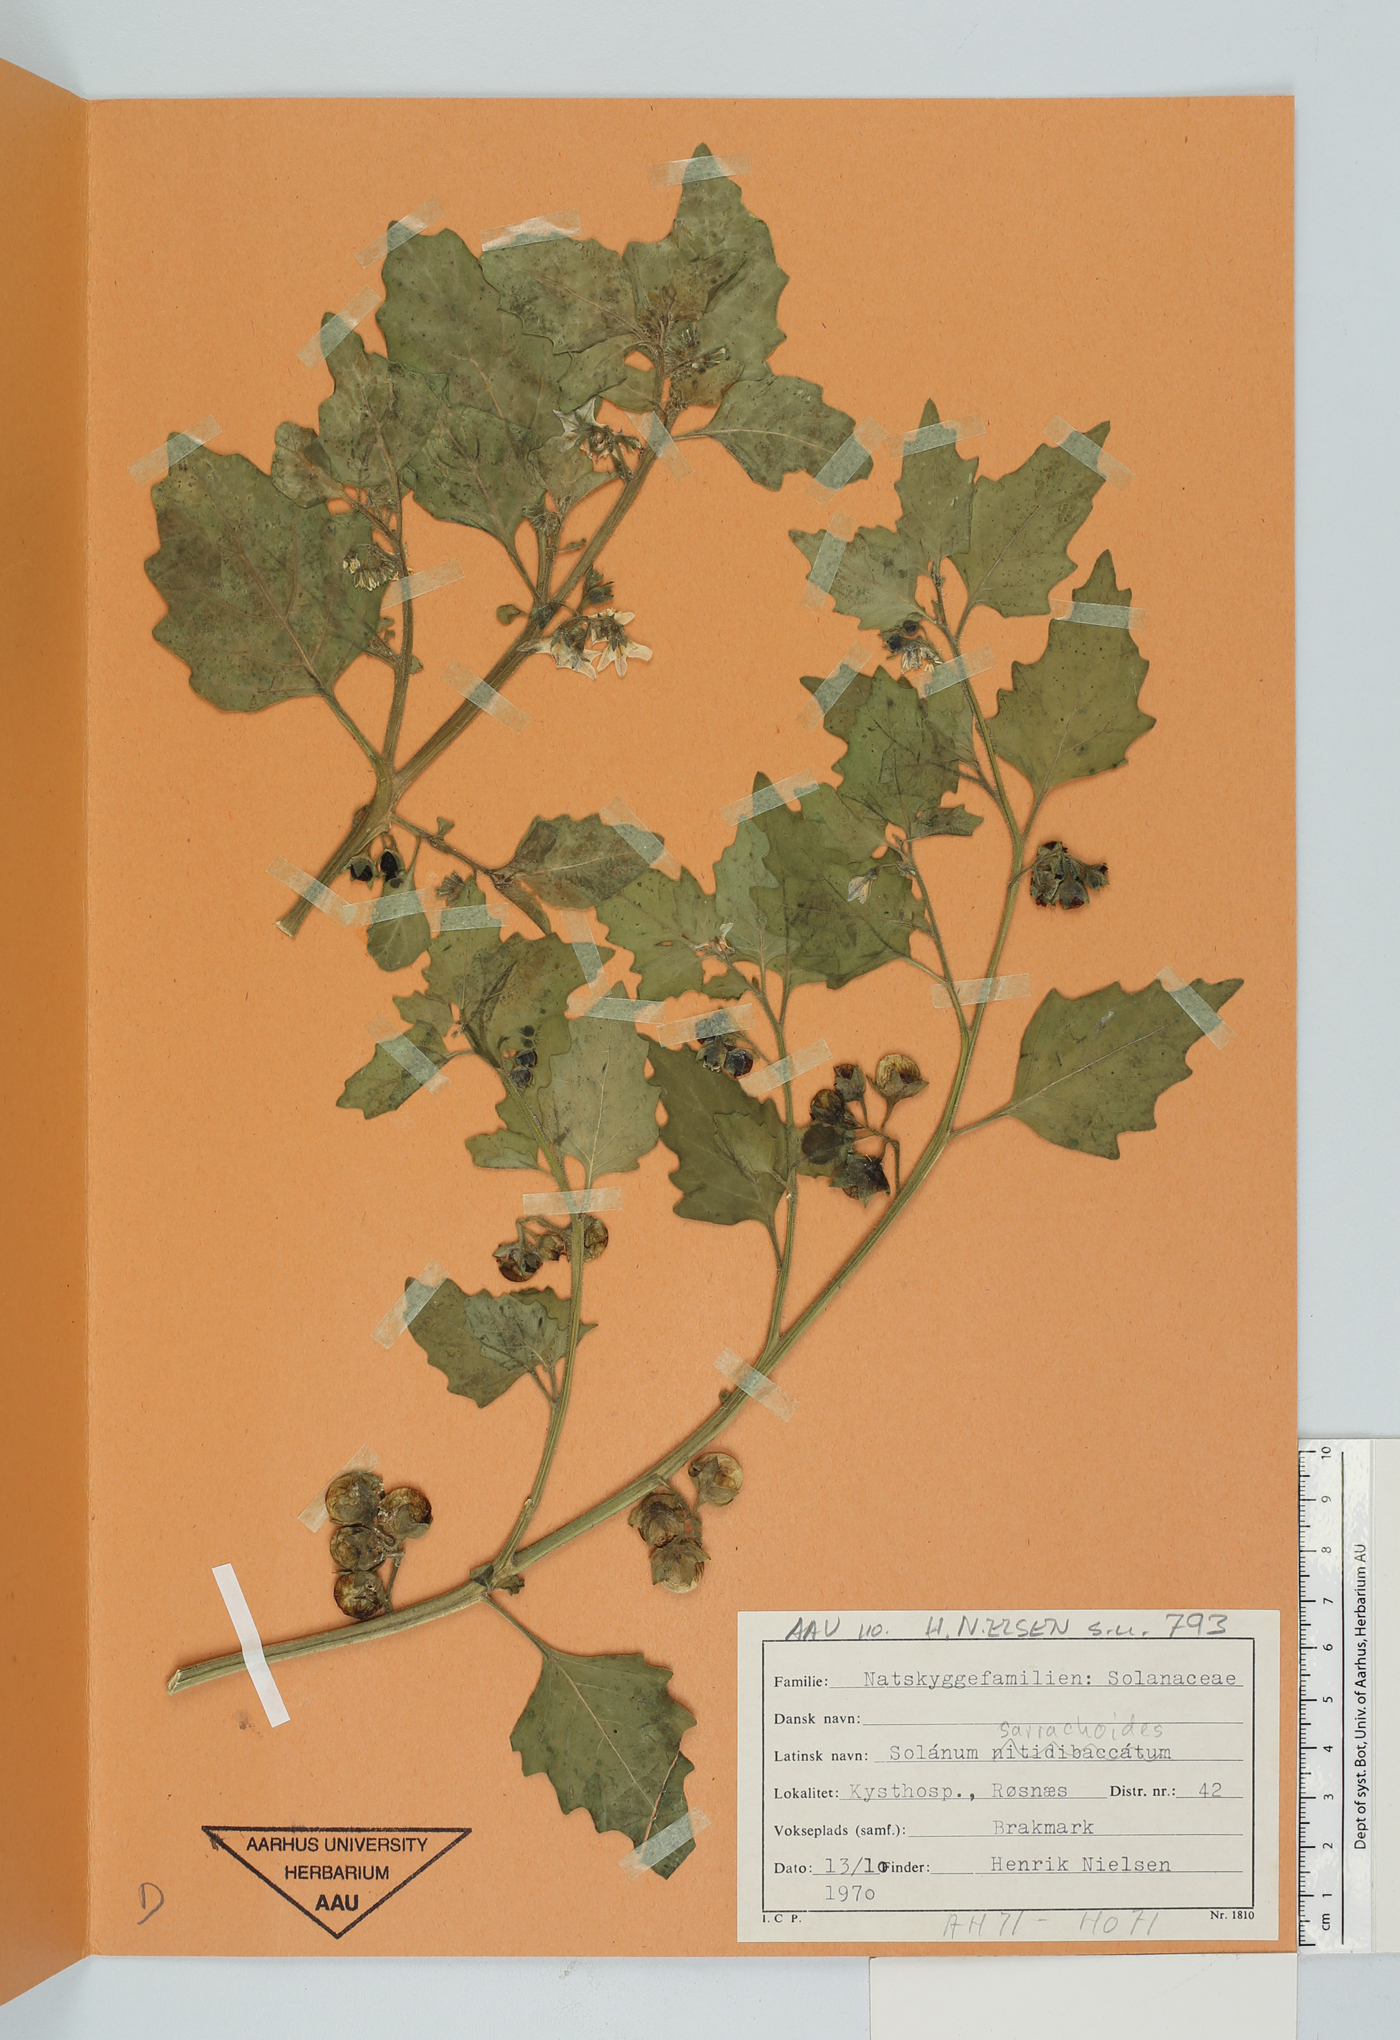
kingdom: Plantae
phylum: Tracheophyta
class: Magnoliopsida
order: Solanales
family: Solanaceae
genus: Solanum
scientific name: Solanum sarrachoides
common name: Leafy-fruited nightshade
